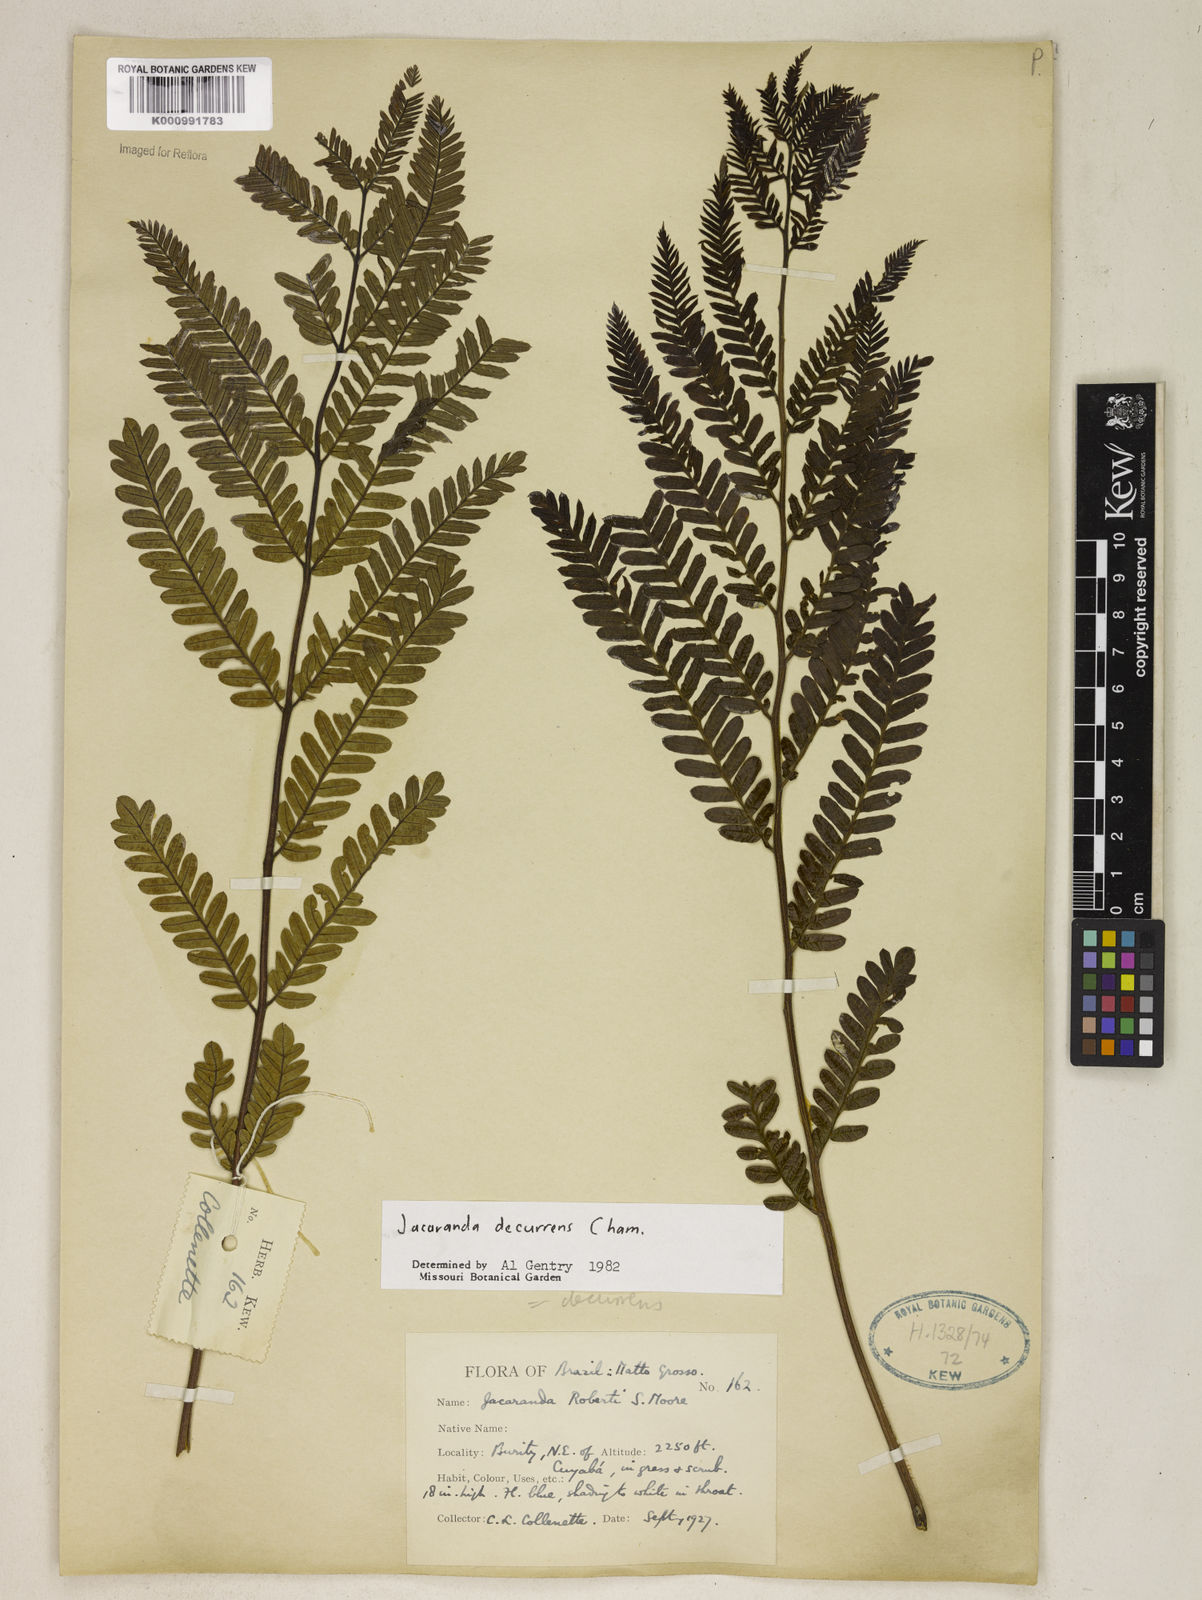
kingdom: Plantae
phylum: Tracheophyta
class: Magnoliopsida
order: Lamiales
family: Bignoniaceae
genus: Jacaranda
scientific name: Jacaranda decurrens
